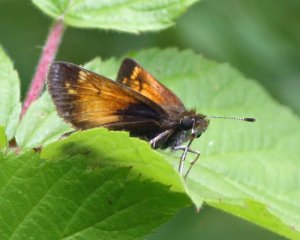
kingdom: Animalia
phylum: Arthropoda
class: Insecta
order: Lepidoptera
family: Hesperiidae
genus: Lon
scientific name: Lon hobomok
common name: Hobomok Skipper
